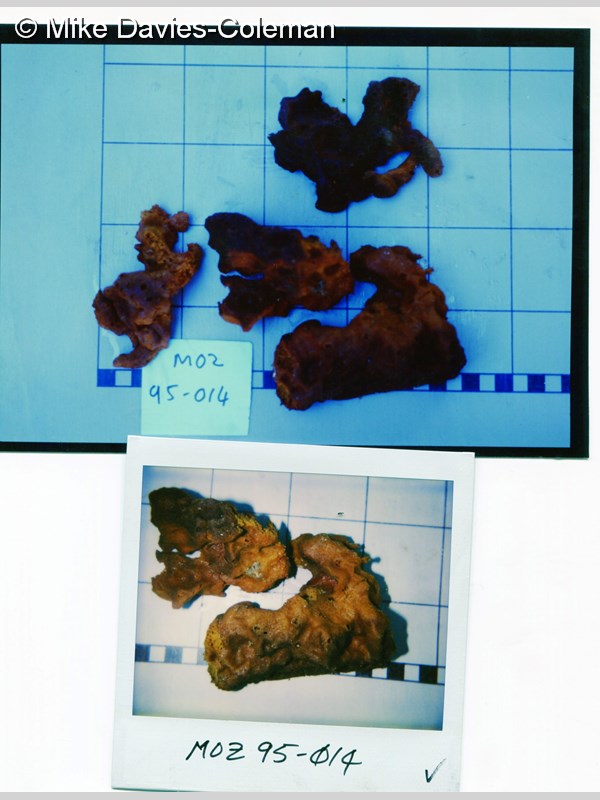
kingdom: Animalia
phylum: Porifera
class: Demospongiae
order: Haplosclerida
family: Petrosiidae
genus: Xestospongia
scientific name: Xestospongia
